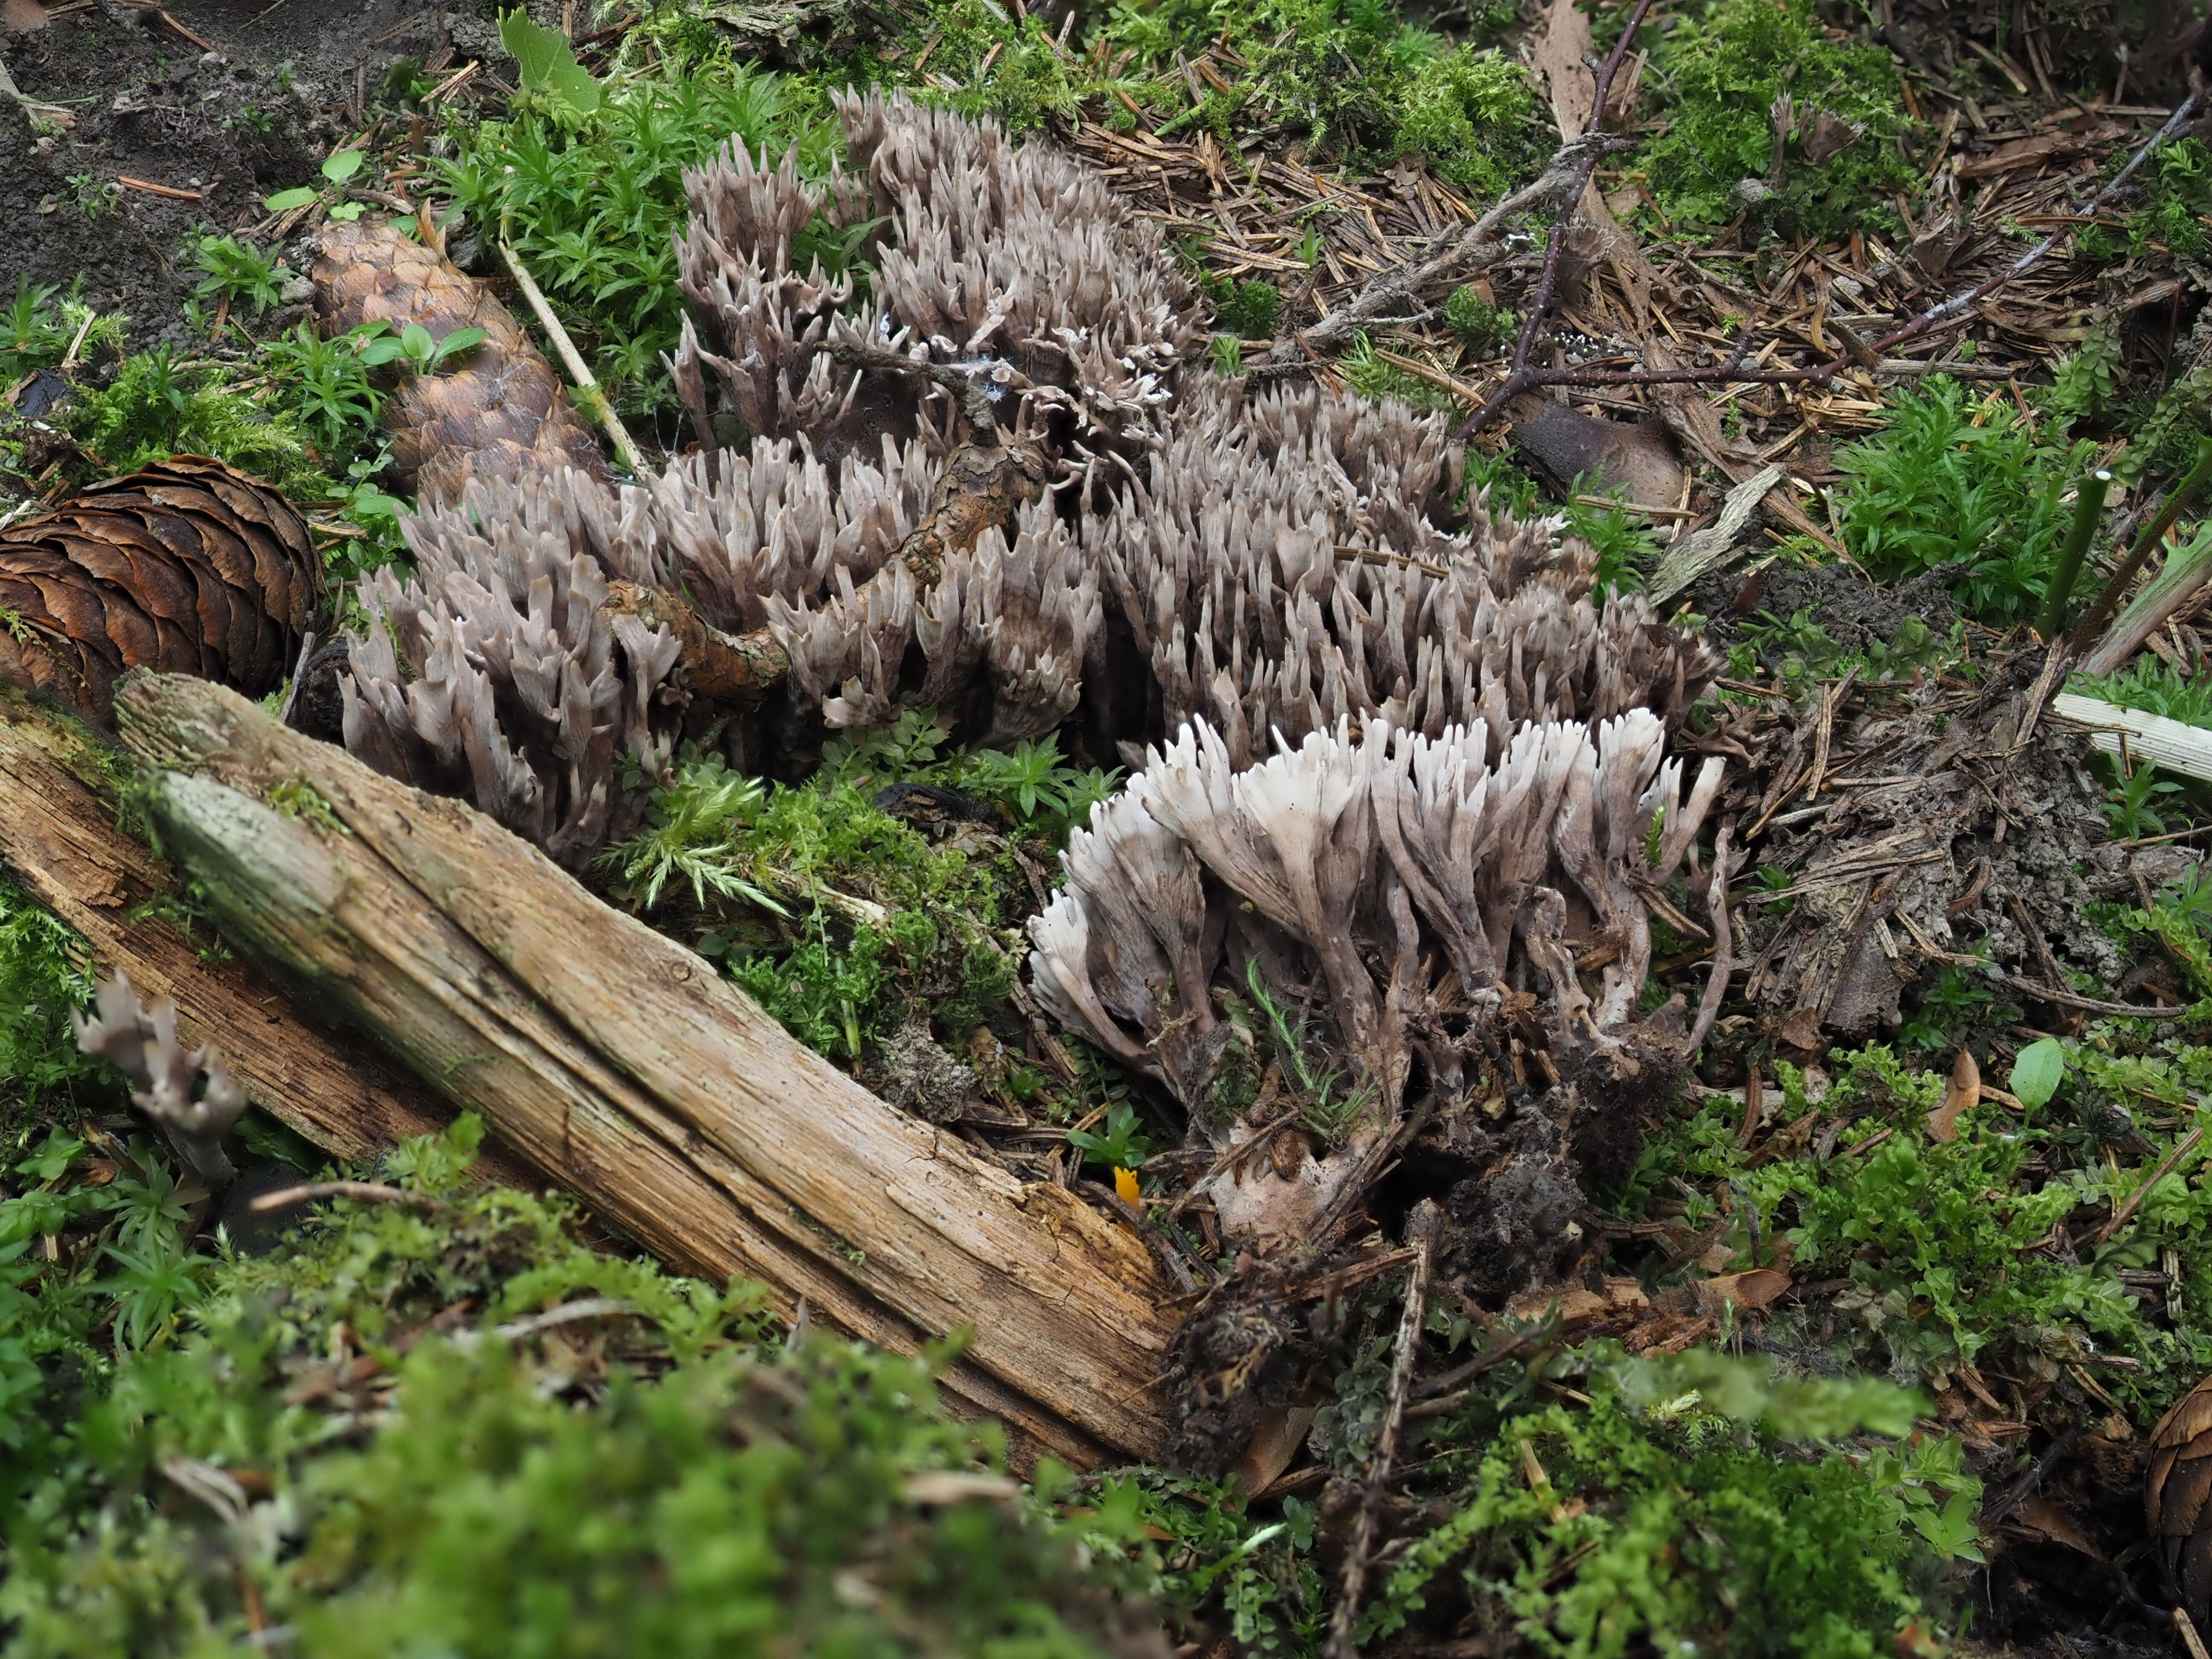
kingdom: Fungi
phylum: Basidiomycota
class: Agaricomycetes
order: Thelephorales
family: Thelephoraceae
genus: Thelephora
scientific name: Thelephora palmata
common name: Stinking earthfan
